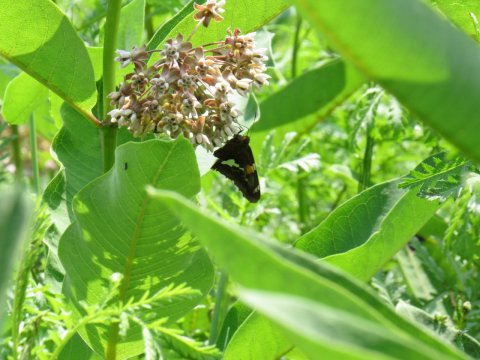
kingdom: Animalia
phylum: Arthropoda
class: Insecta
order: Lepidoptera
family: Hesperiidae
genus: Epargyreus
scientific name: Epargyreus clarus
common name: Silver-spotted Skipper
